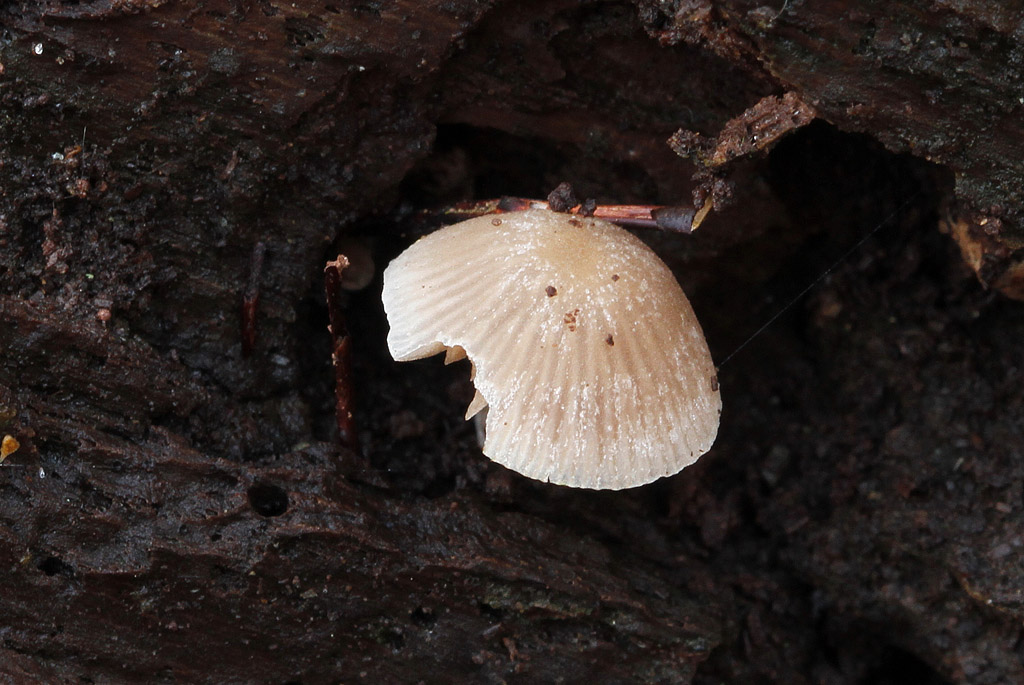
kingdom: Fungi
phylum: Basidiomycota
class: Agaricomycetes
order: Agaricales
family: Psathyrellaceae
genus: Psathyrella
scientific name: Psathyrella pygmaea
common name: dværg-mørkhat
